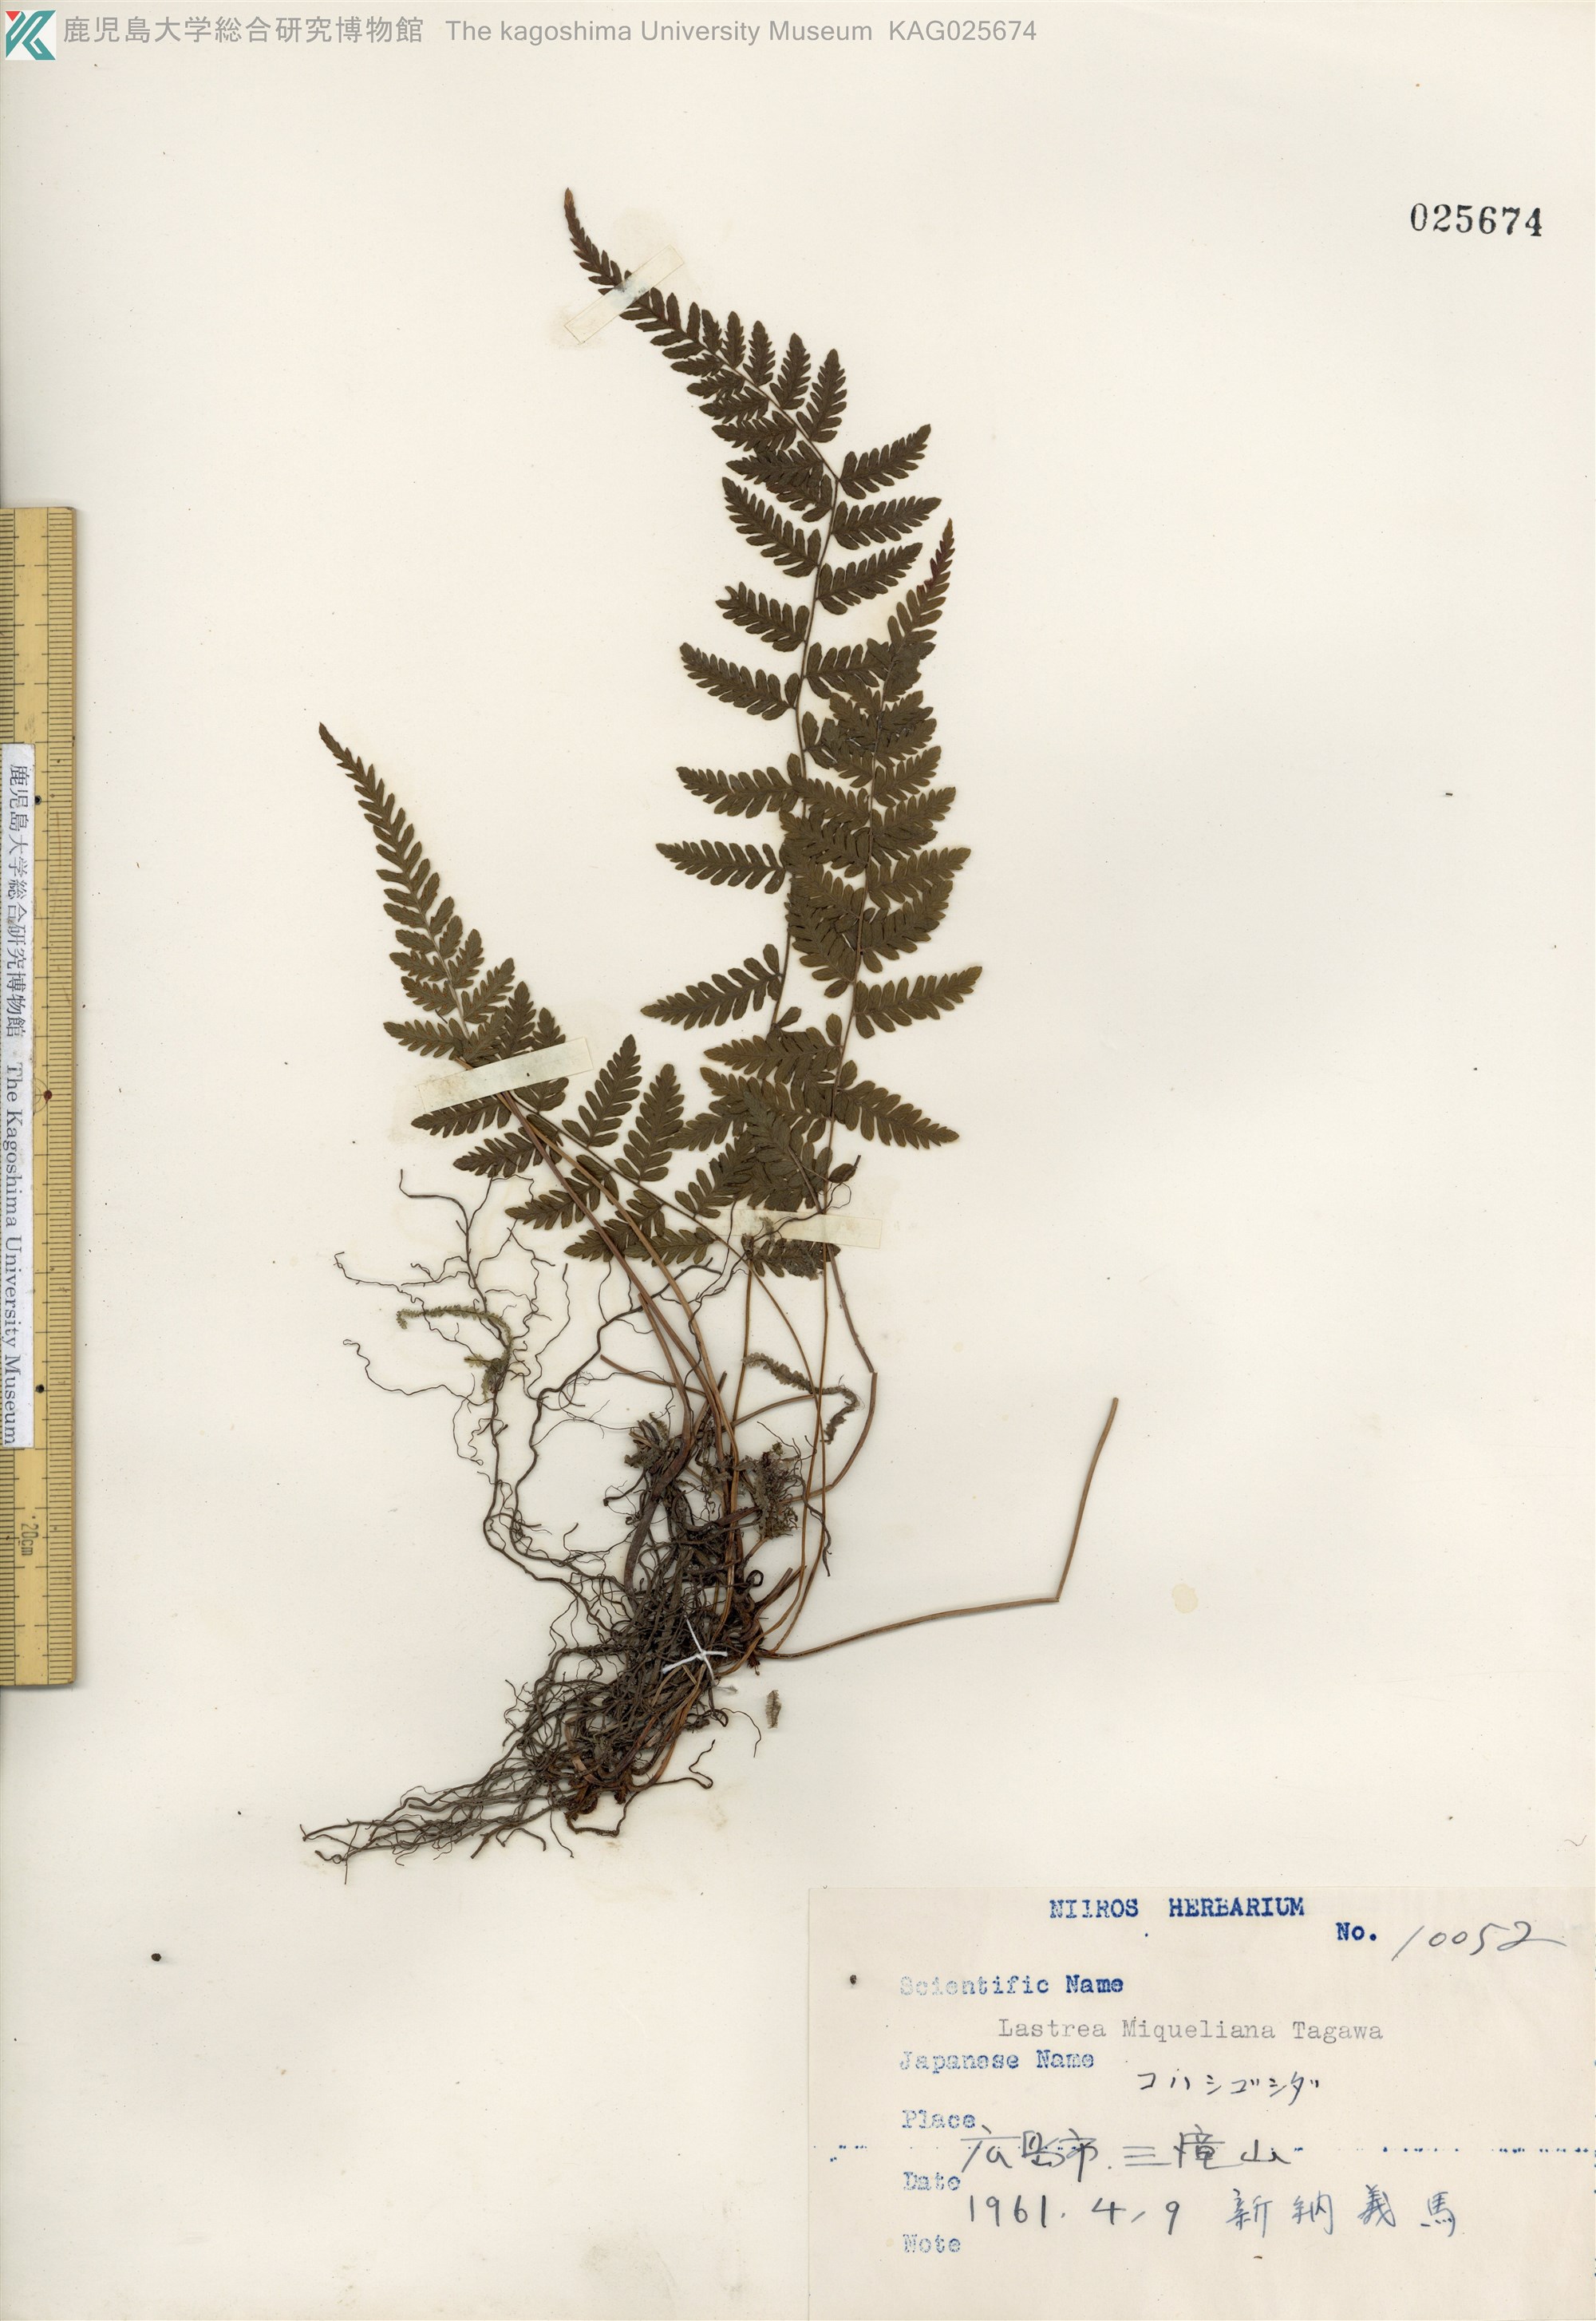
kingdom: Plantae
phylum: Tracheophyta
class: Polypodiopsida
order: Polypodiales
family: Thelypteridaceae
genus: Amauropelta
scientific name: Amauropelta angustifrons
